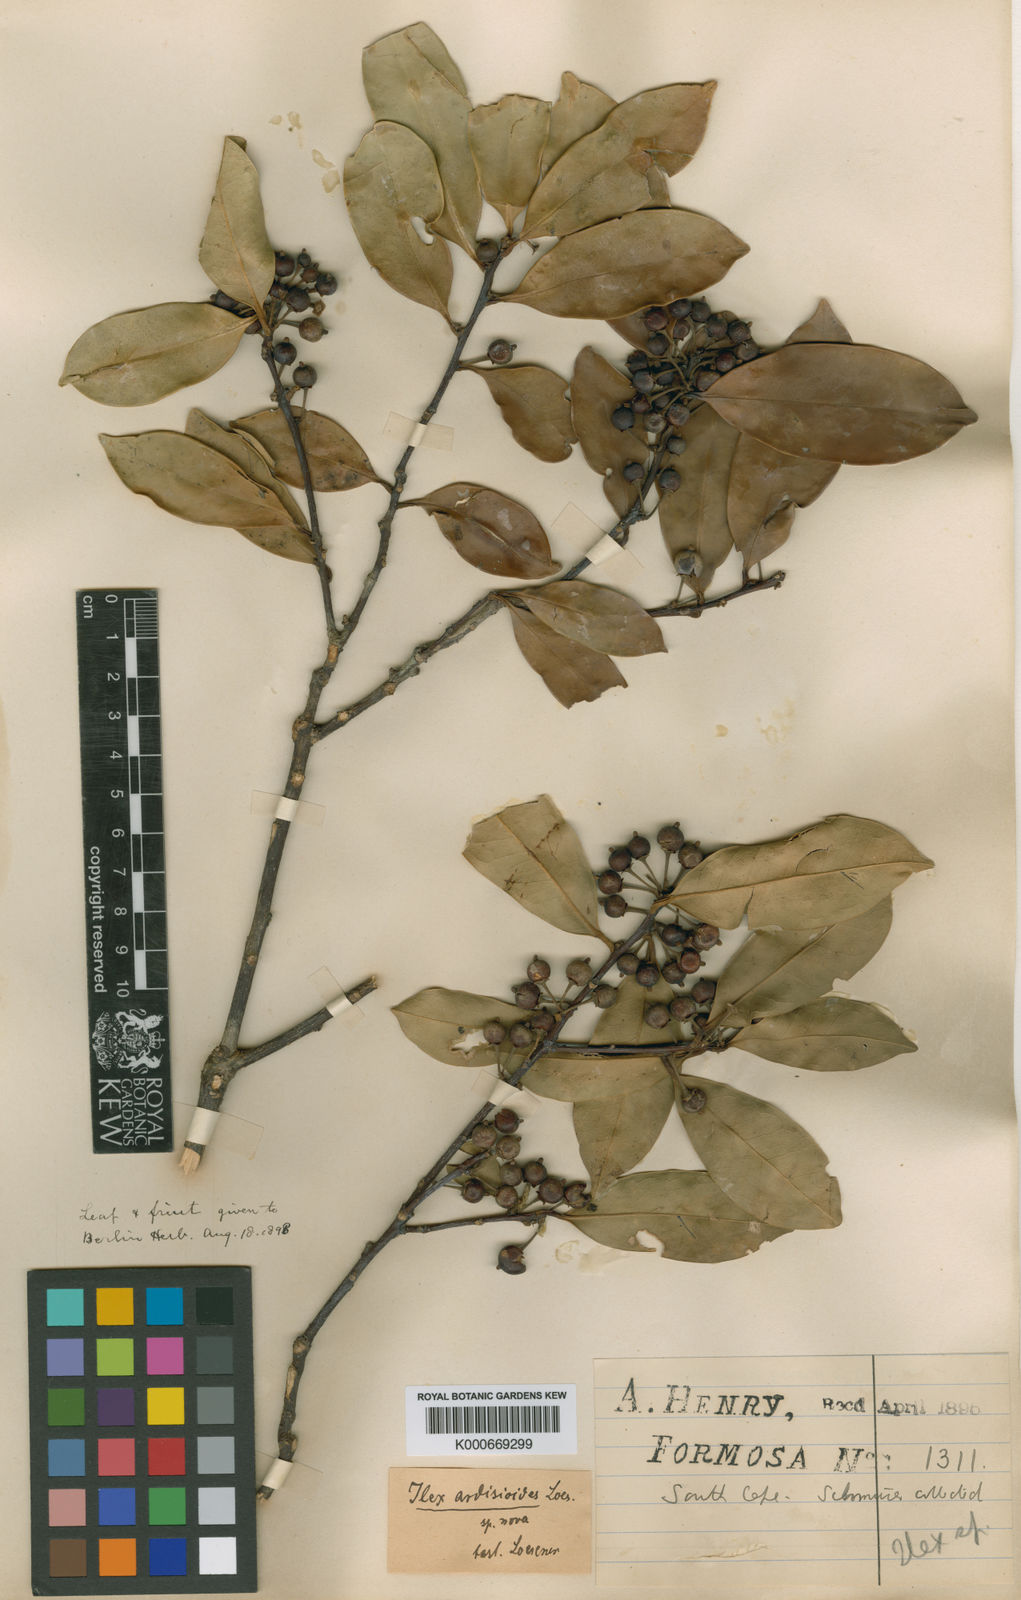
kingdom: Plantae
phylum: Tracheophyta
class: Magnoliopsida
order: Aquifoliales
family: Aquifoliaceae
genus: Ilex
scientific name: Ilex cochinchinensis
